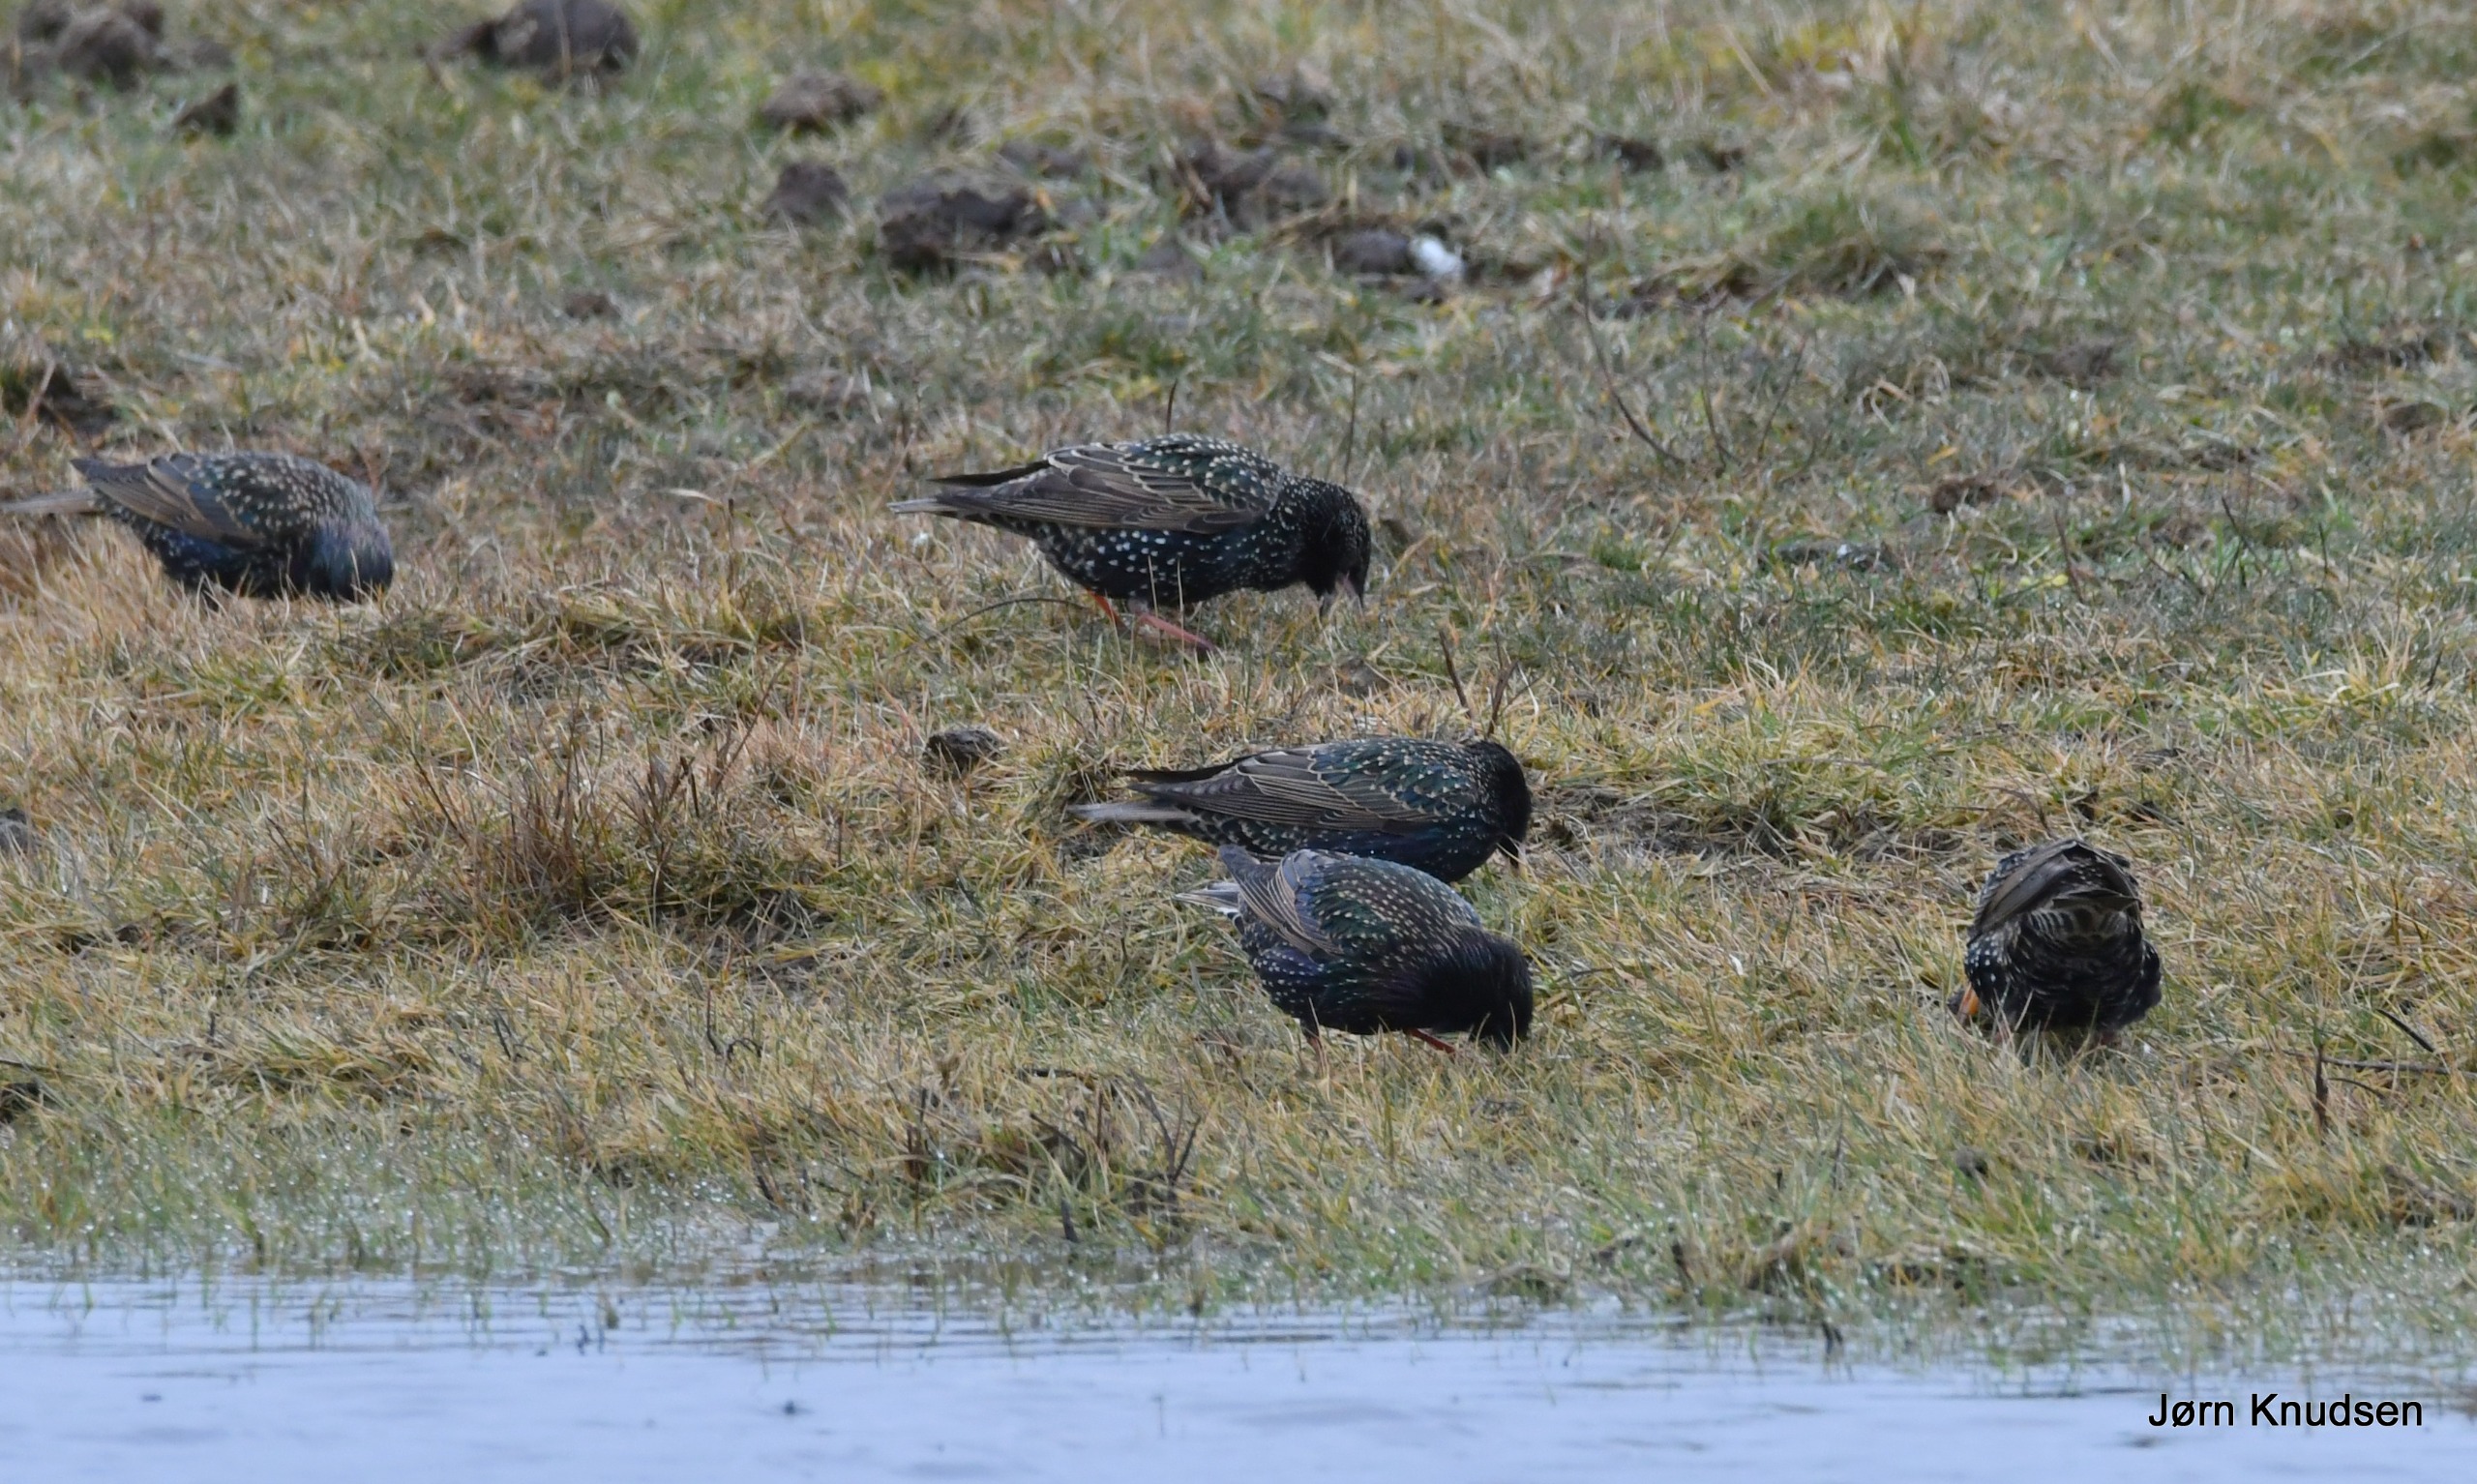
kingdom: Animalia
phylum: Chordata
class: Aves
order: Passeriformes
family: Sturnidae
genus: Sturnus
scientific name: Sturnus vulgaris
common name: Stær
